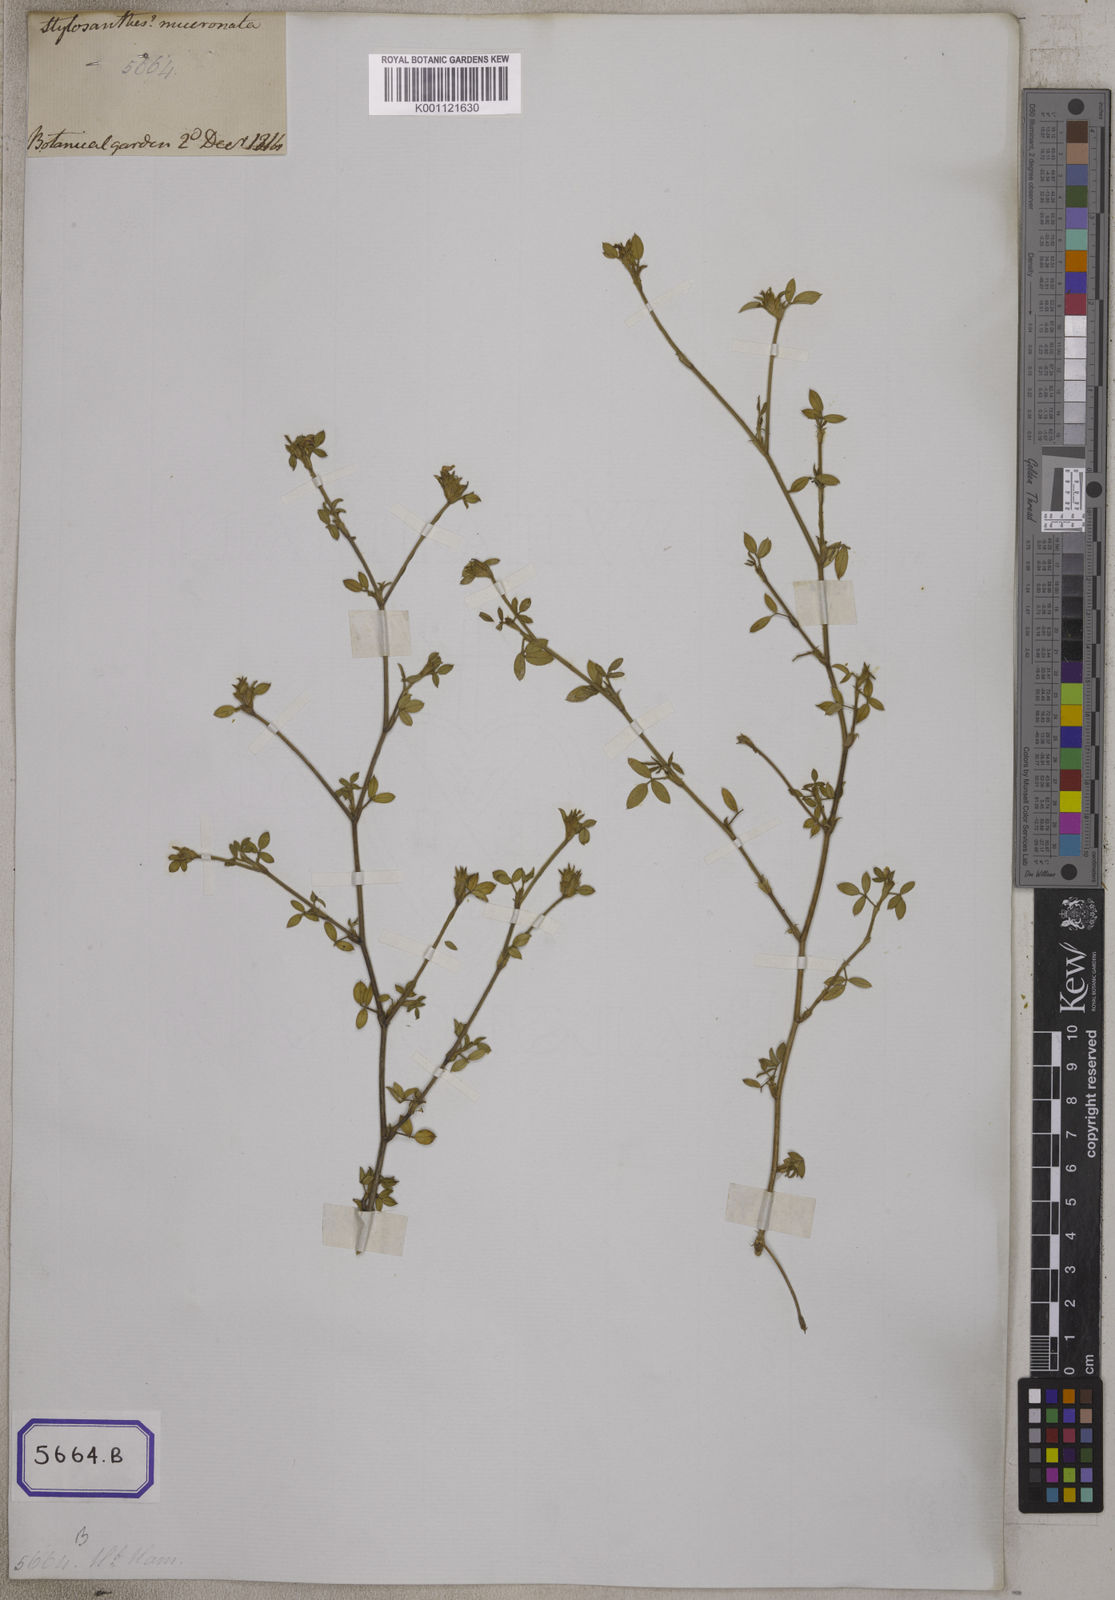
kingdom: Plantae
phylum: Tracheophyta
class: Magnoliopsida
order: Fabales
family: Fabaceae
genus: Stylosanthes
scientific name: Stylosanthes fruticosa
